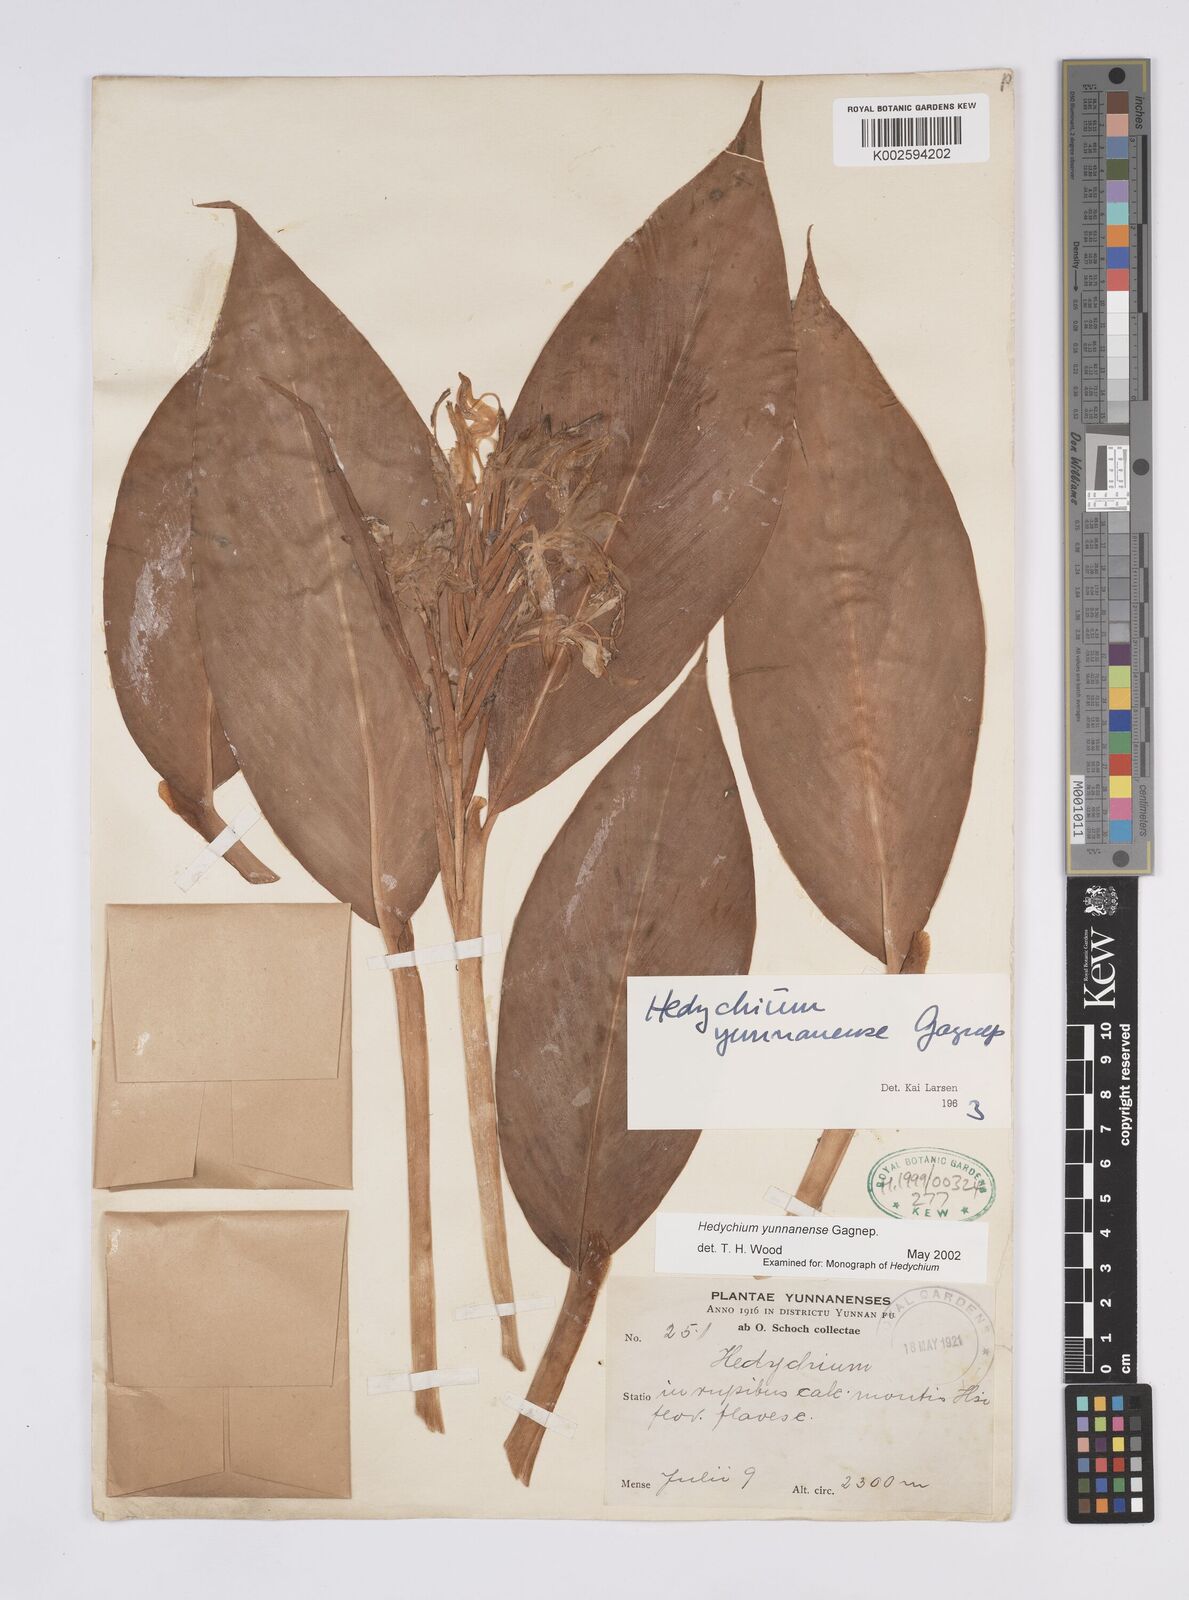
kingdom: Plantae
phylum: Tracheophyta
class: Liliopsida
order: Zingiberales
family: Zingiberaceae
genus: Hedychium
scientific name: Hedychium yunnanense
